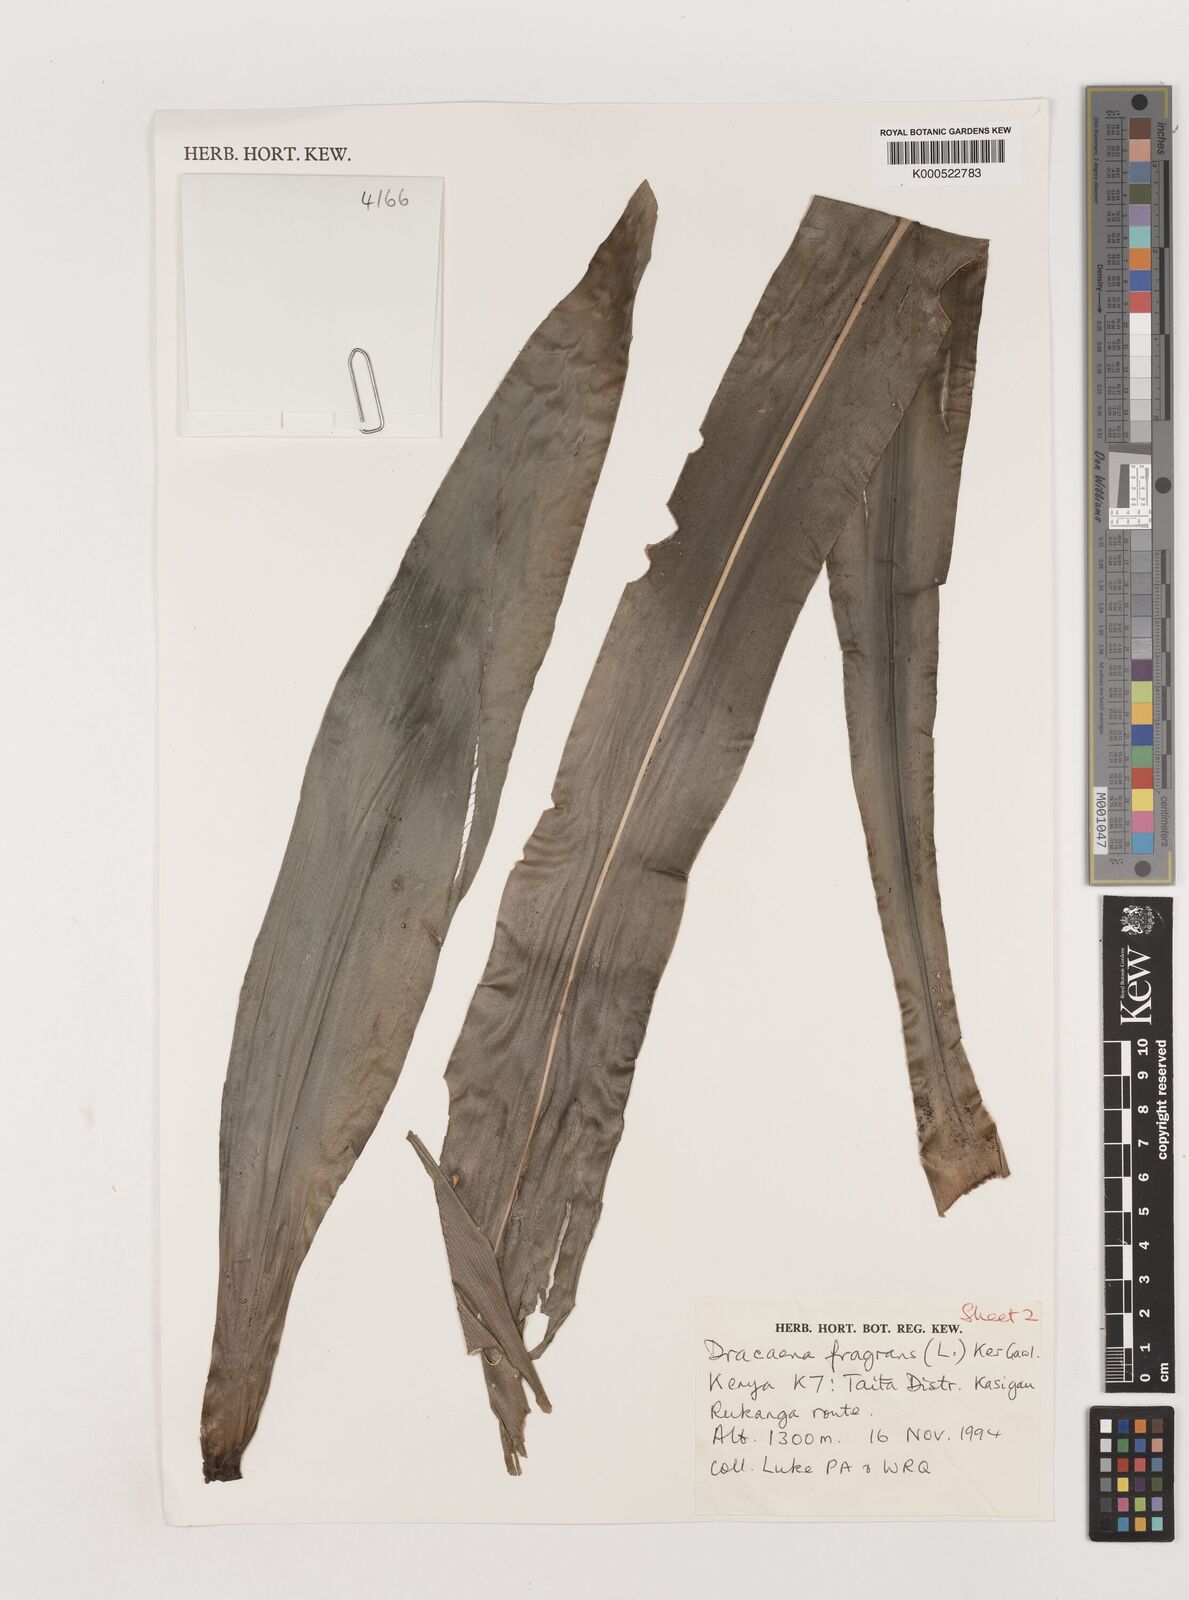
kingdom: Plantae
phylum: Tracheophyta
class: Liliopsida
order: Asparagales
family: Asparagaceae
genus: Dracaena
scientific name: Dracaena fragrans
